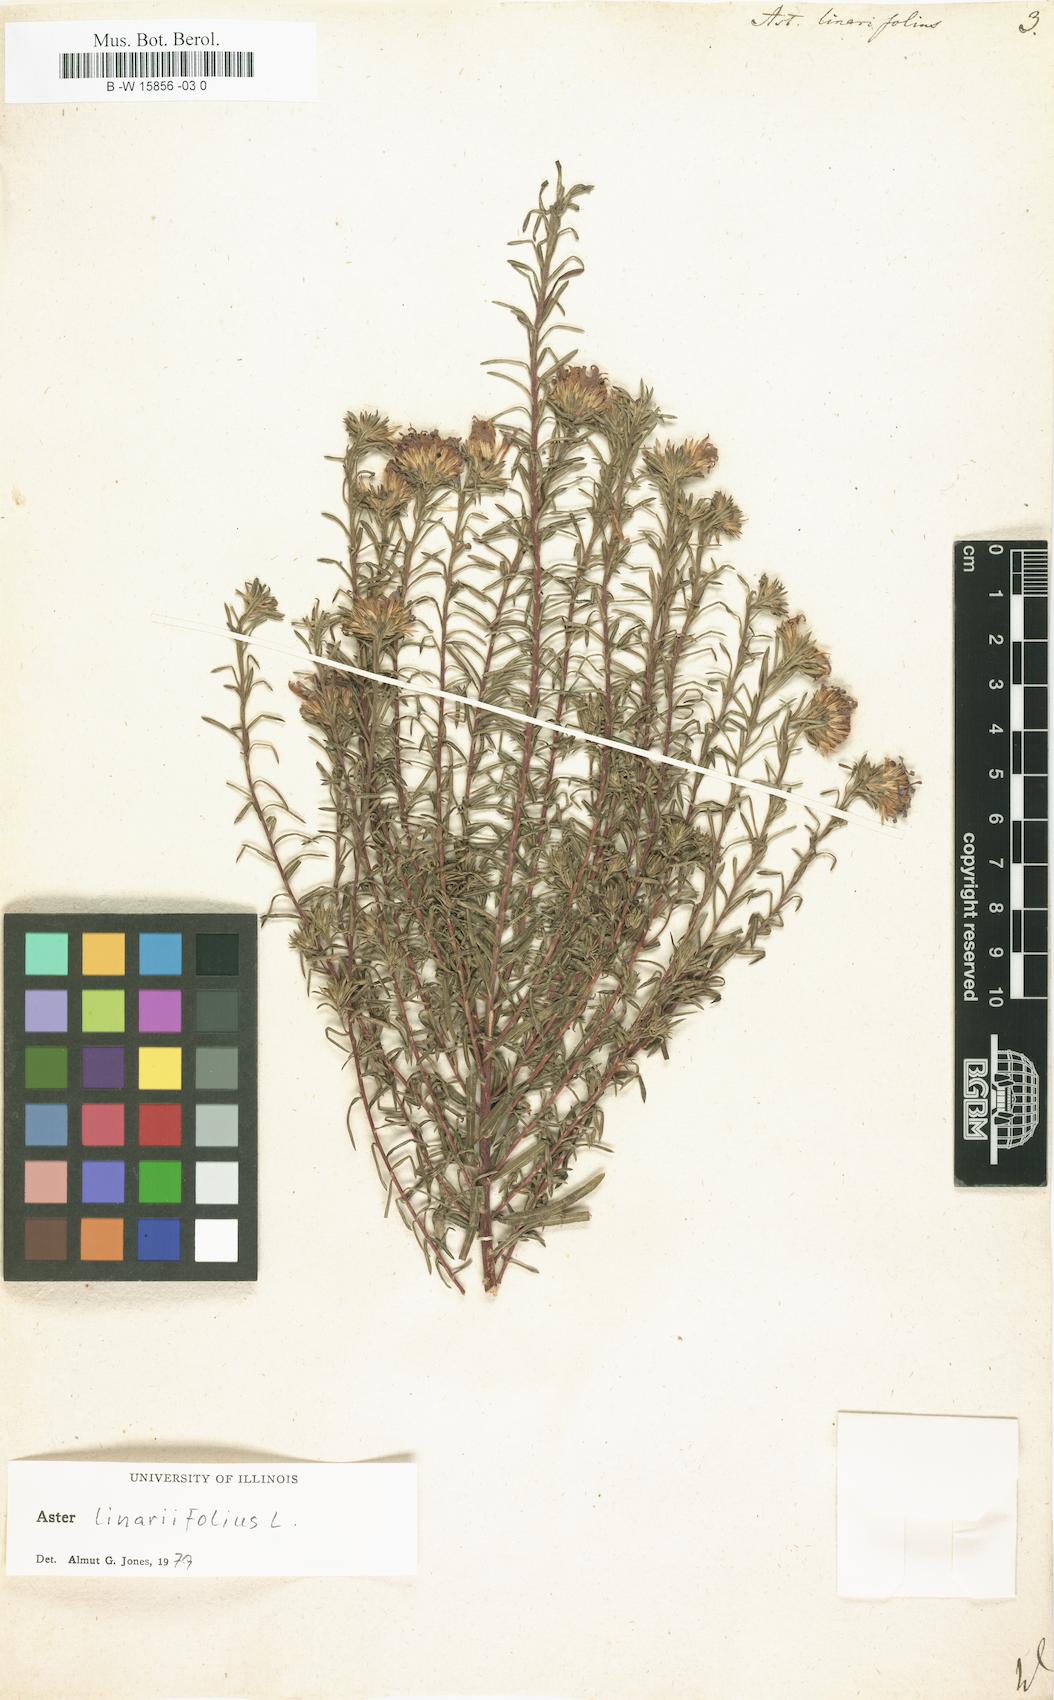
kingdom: Plantae
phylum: Tracheophyta
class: Magnoliopsida
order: Asterales
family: Asteraceae
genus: Aster
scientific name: Aster linariifolius
